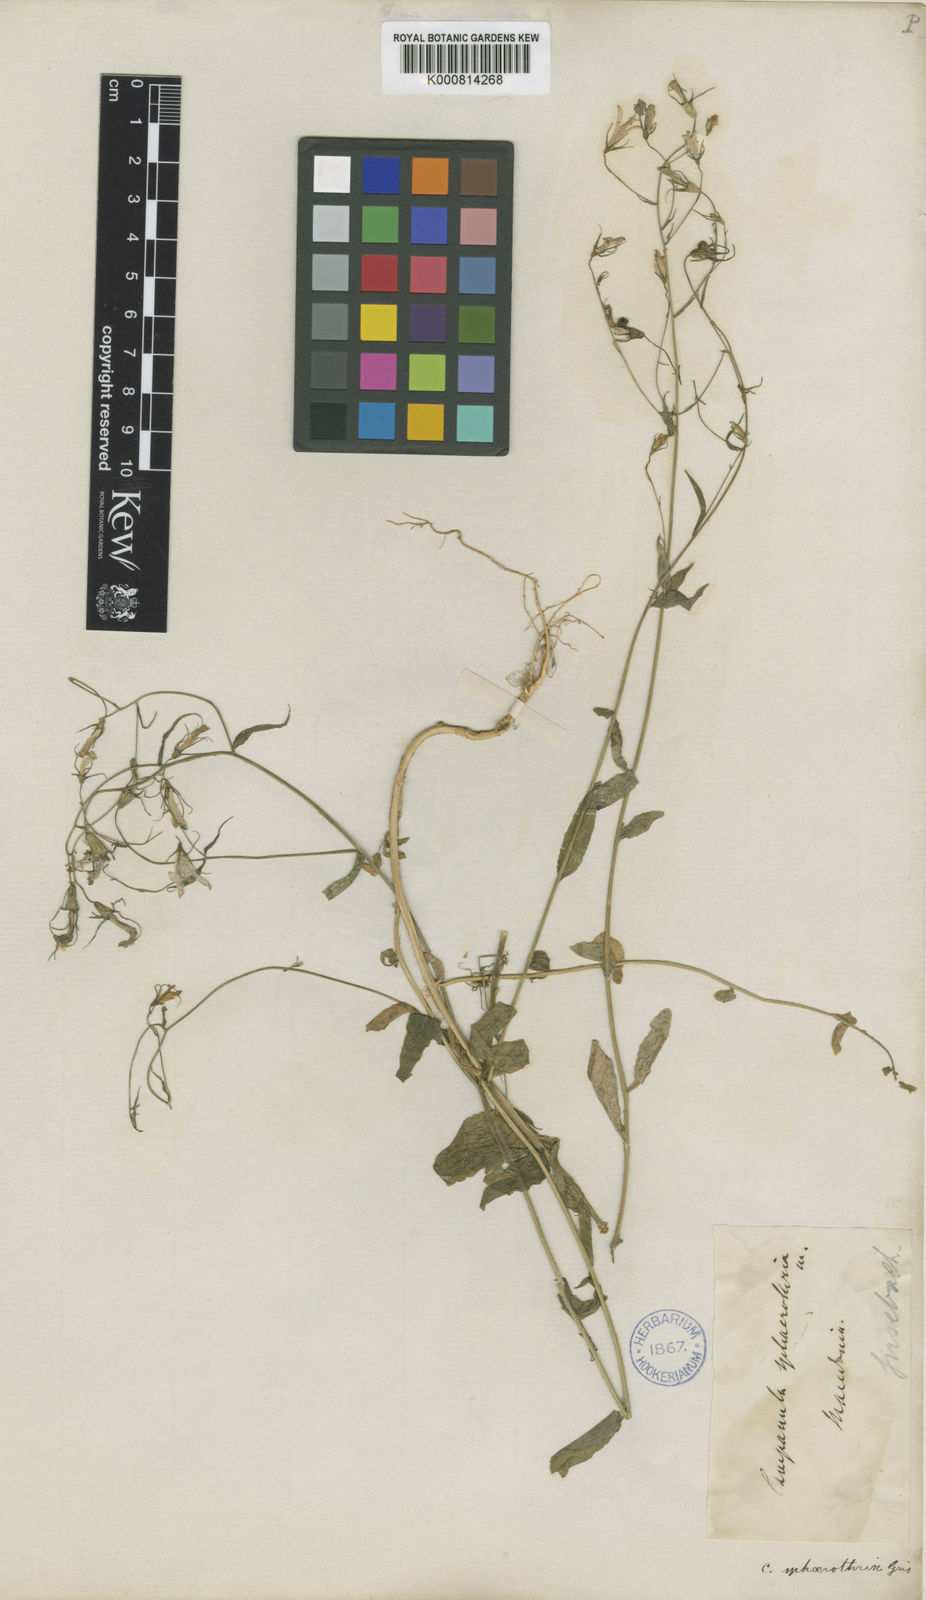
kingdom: Plantae
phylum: Tracheophyta
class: Magnoliopsida
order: Asterales
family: Campanulaceae
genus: Campanula
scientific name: Campanula sparsa
